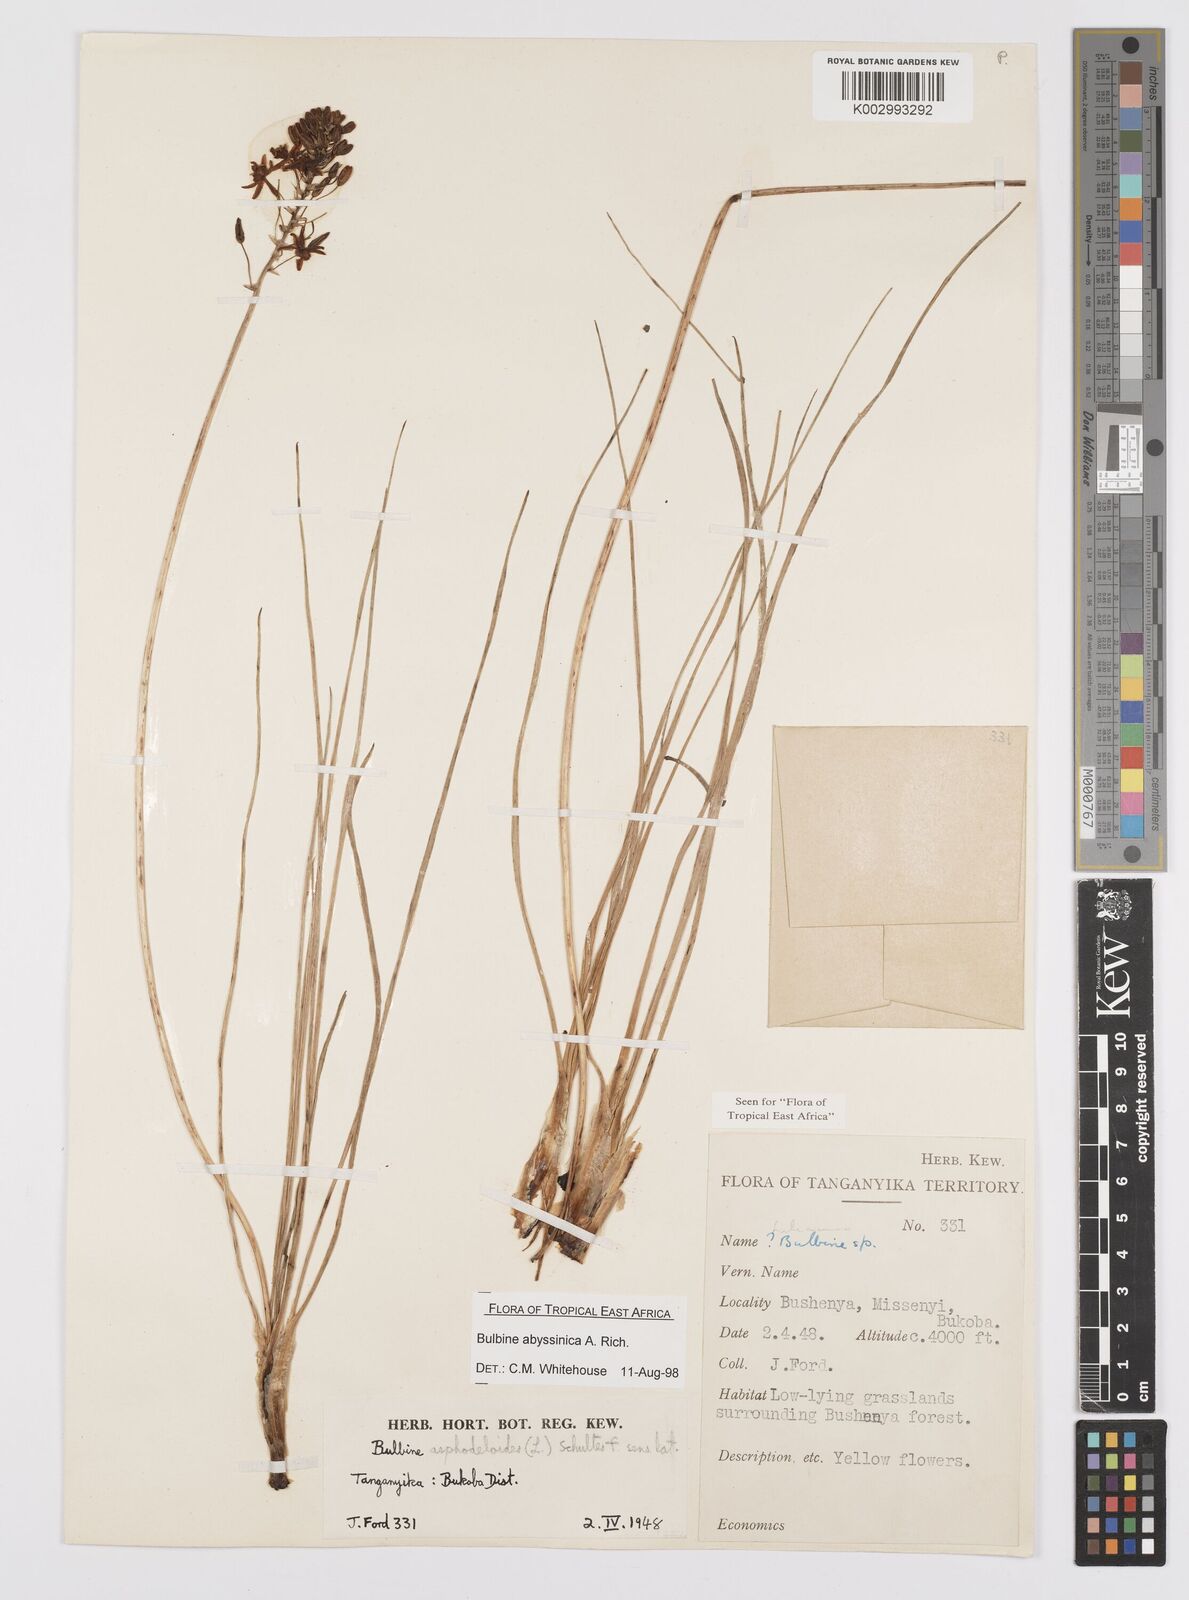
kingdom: Plantae
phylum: Tracheophyta
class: Liliopsida
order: Asparagales
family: Asphodelaceae
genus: Bulbine
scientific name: Bulbine abyssinica
